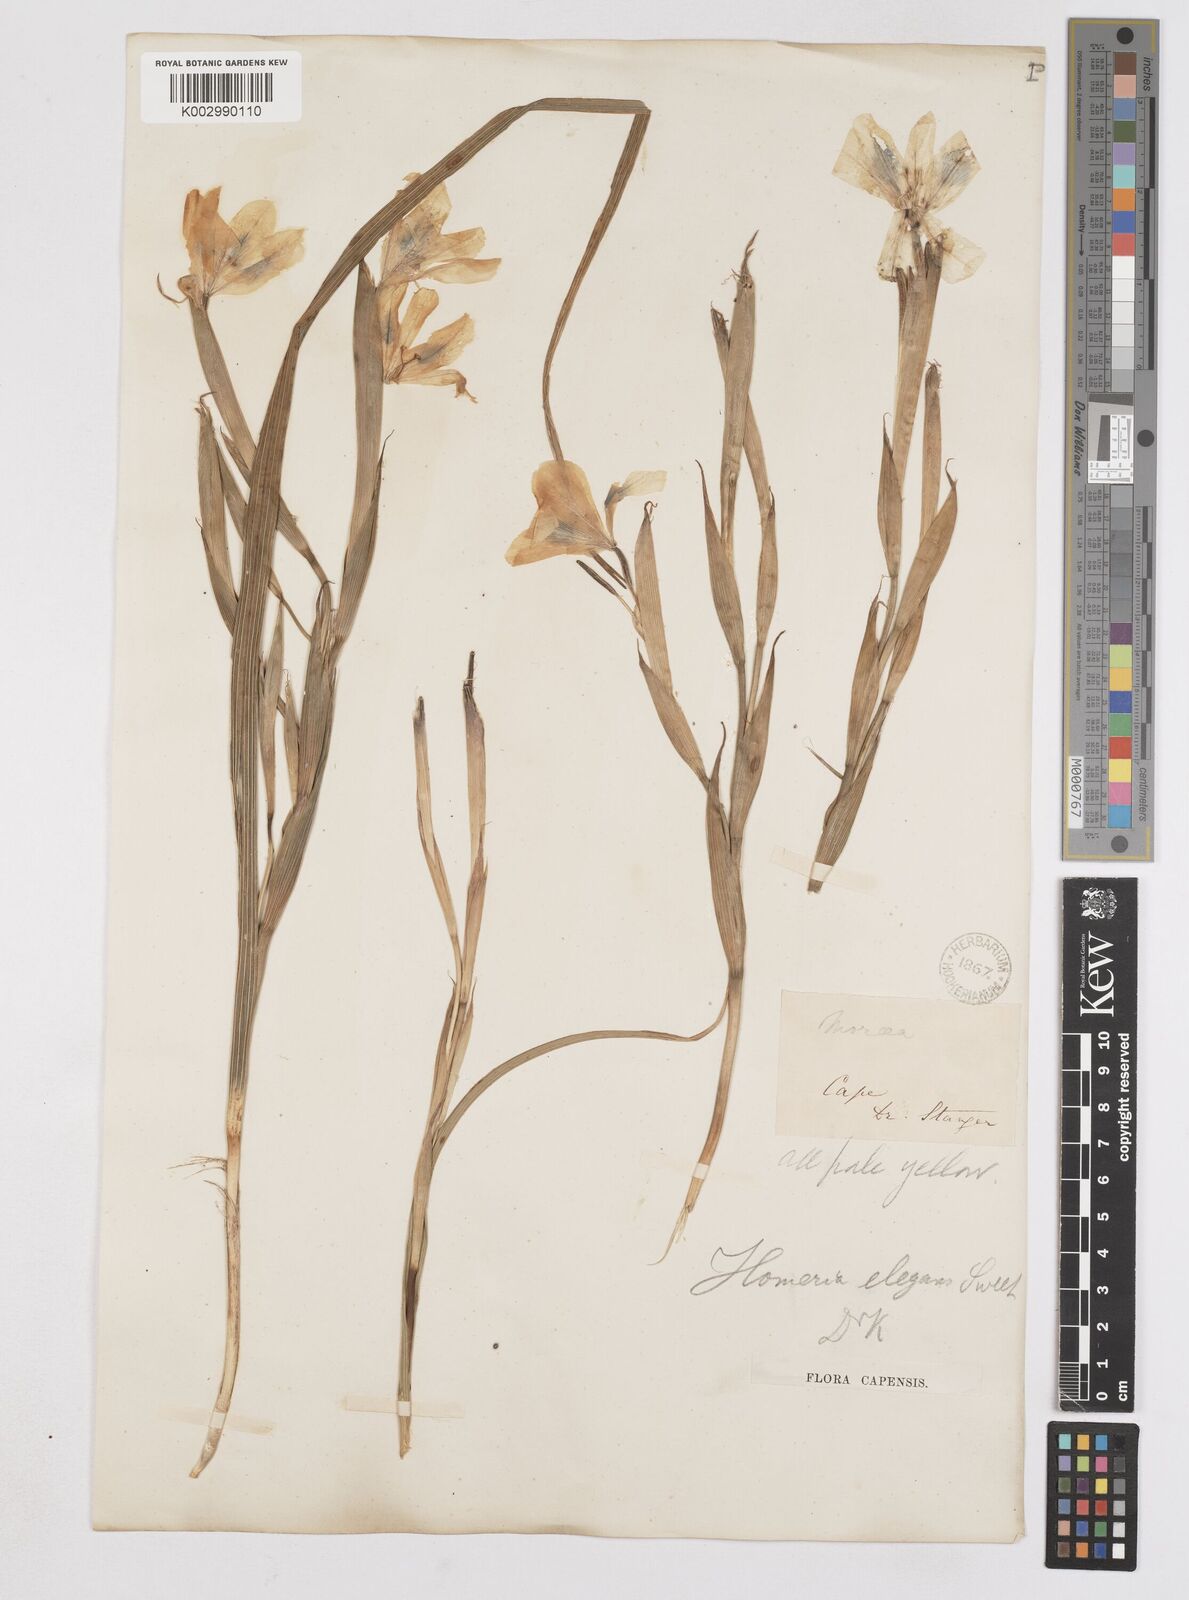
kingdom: Plantae
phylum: Tracheophyta
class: Liliopsida
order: Asparagales
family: Iridaceae
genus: Moraea
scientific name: Moraea elegans
